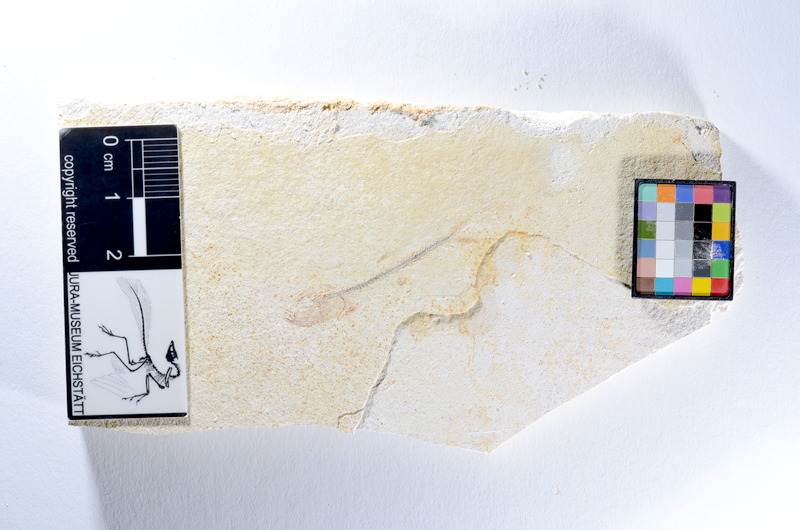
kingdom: Animalia
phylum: Chordata
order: Salmoniformes
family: Orthogonikleithridae
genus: Orthogonikleithrus
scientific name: Orthogonikleithrus hoelli
